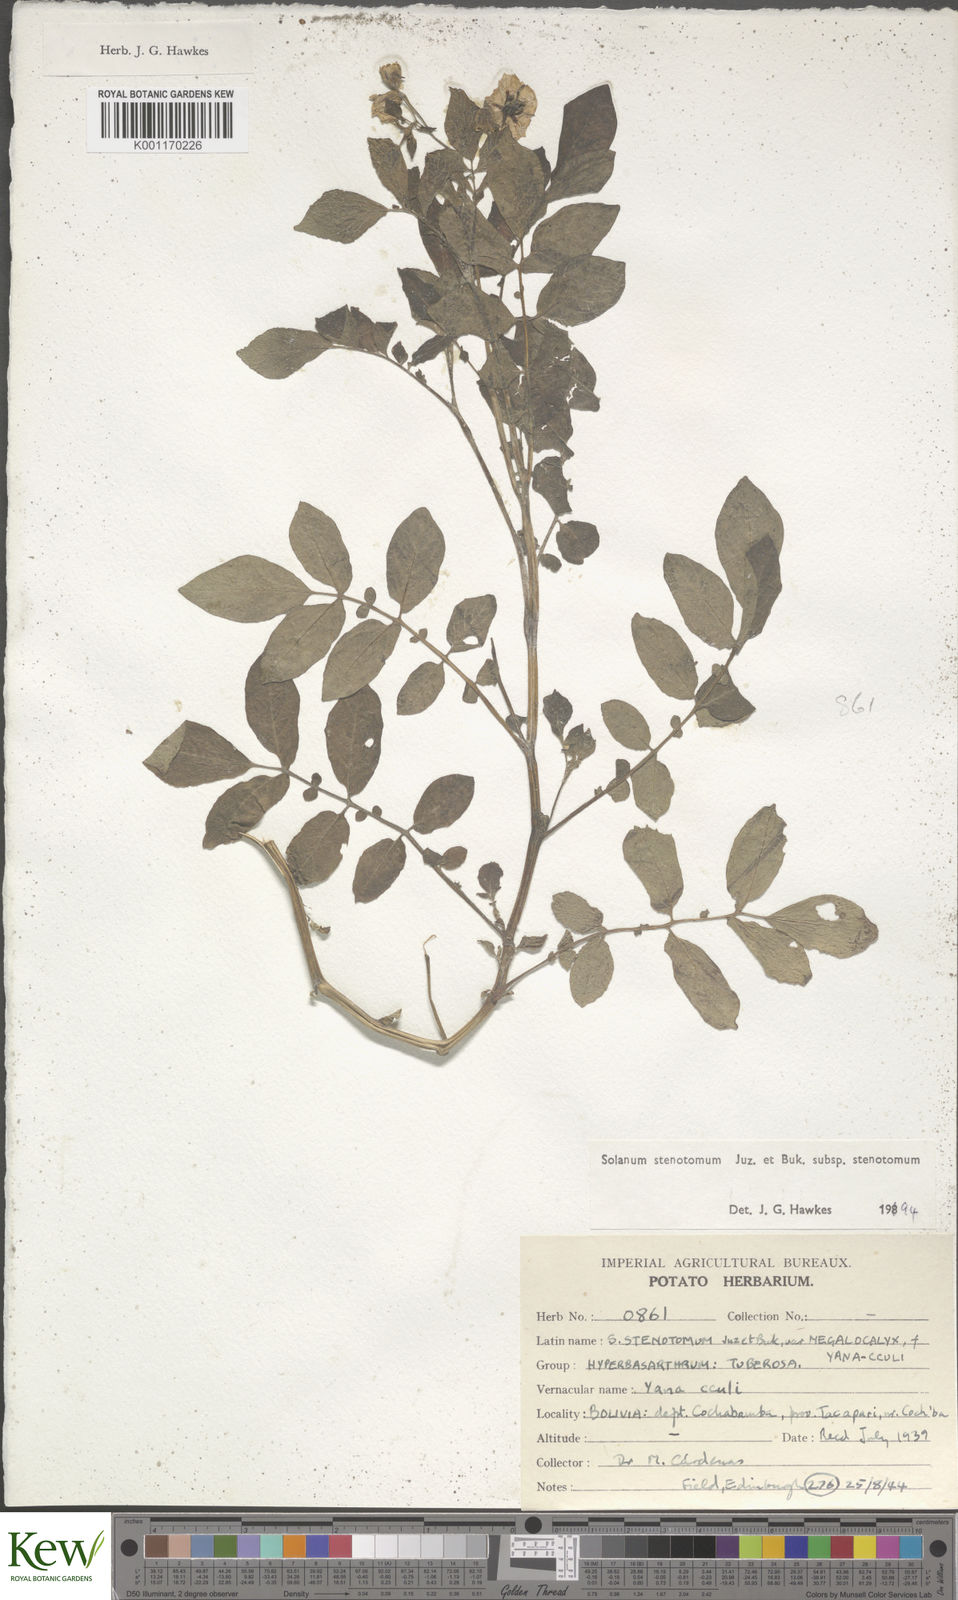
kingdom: Plantae
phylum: Tracheophyta
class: Magnoliopsida
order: Solanales
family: Solanaceae
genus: Solanum
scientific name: Solanum tuberosum
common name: Potato
